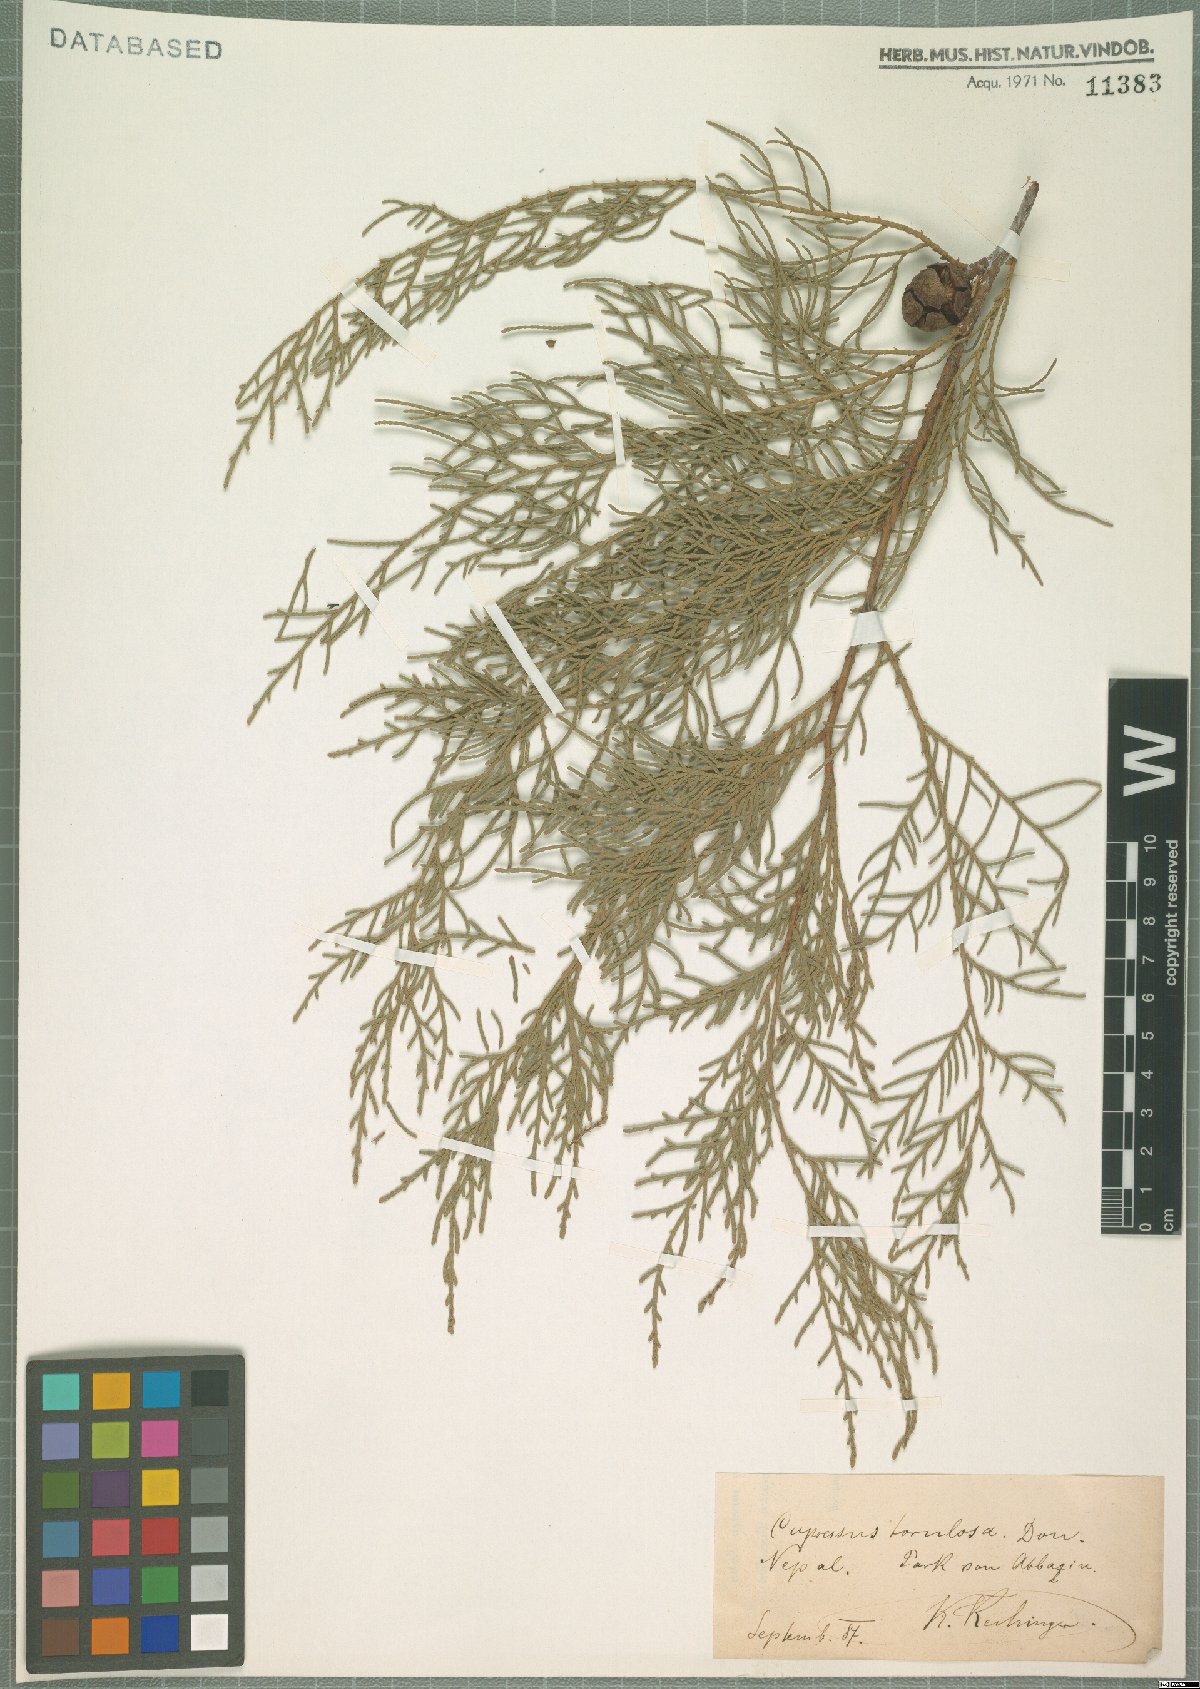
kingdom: Plantae
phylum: Tracheophyta
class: Pinopsida
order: Pinales
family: Cupressaceae
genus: Cupressus
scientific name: Cupressus torulosa
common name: Himalayan cypress
